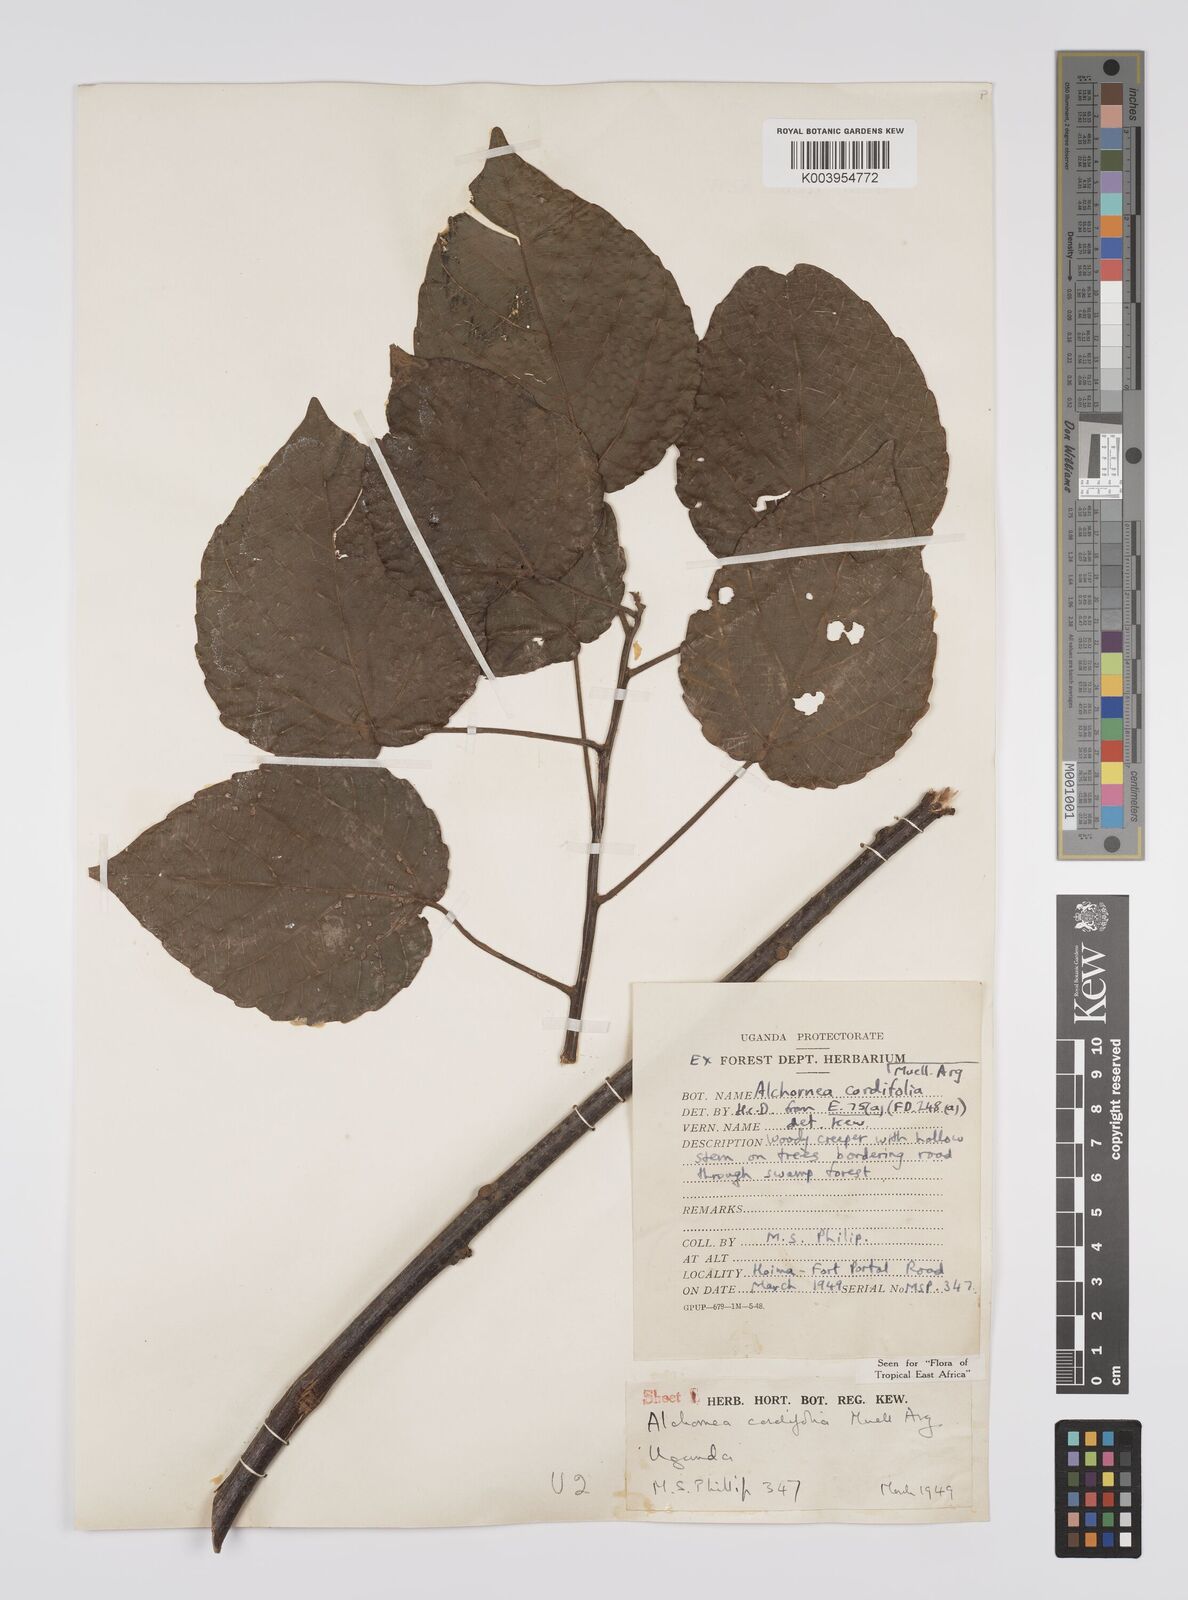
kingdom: Plantae
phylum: Tracheophyta
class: Magnoliopsida
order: Malpighiales
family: Euphorbiaceae
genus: Alchornea
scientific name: Alchornea cordifolia
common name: Christmasbush
